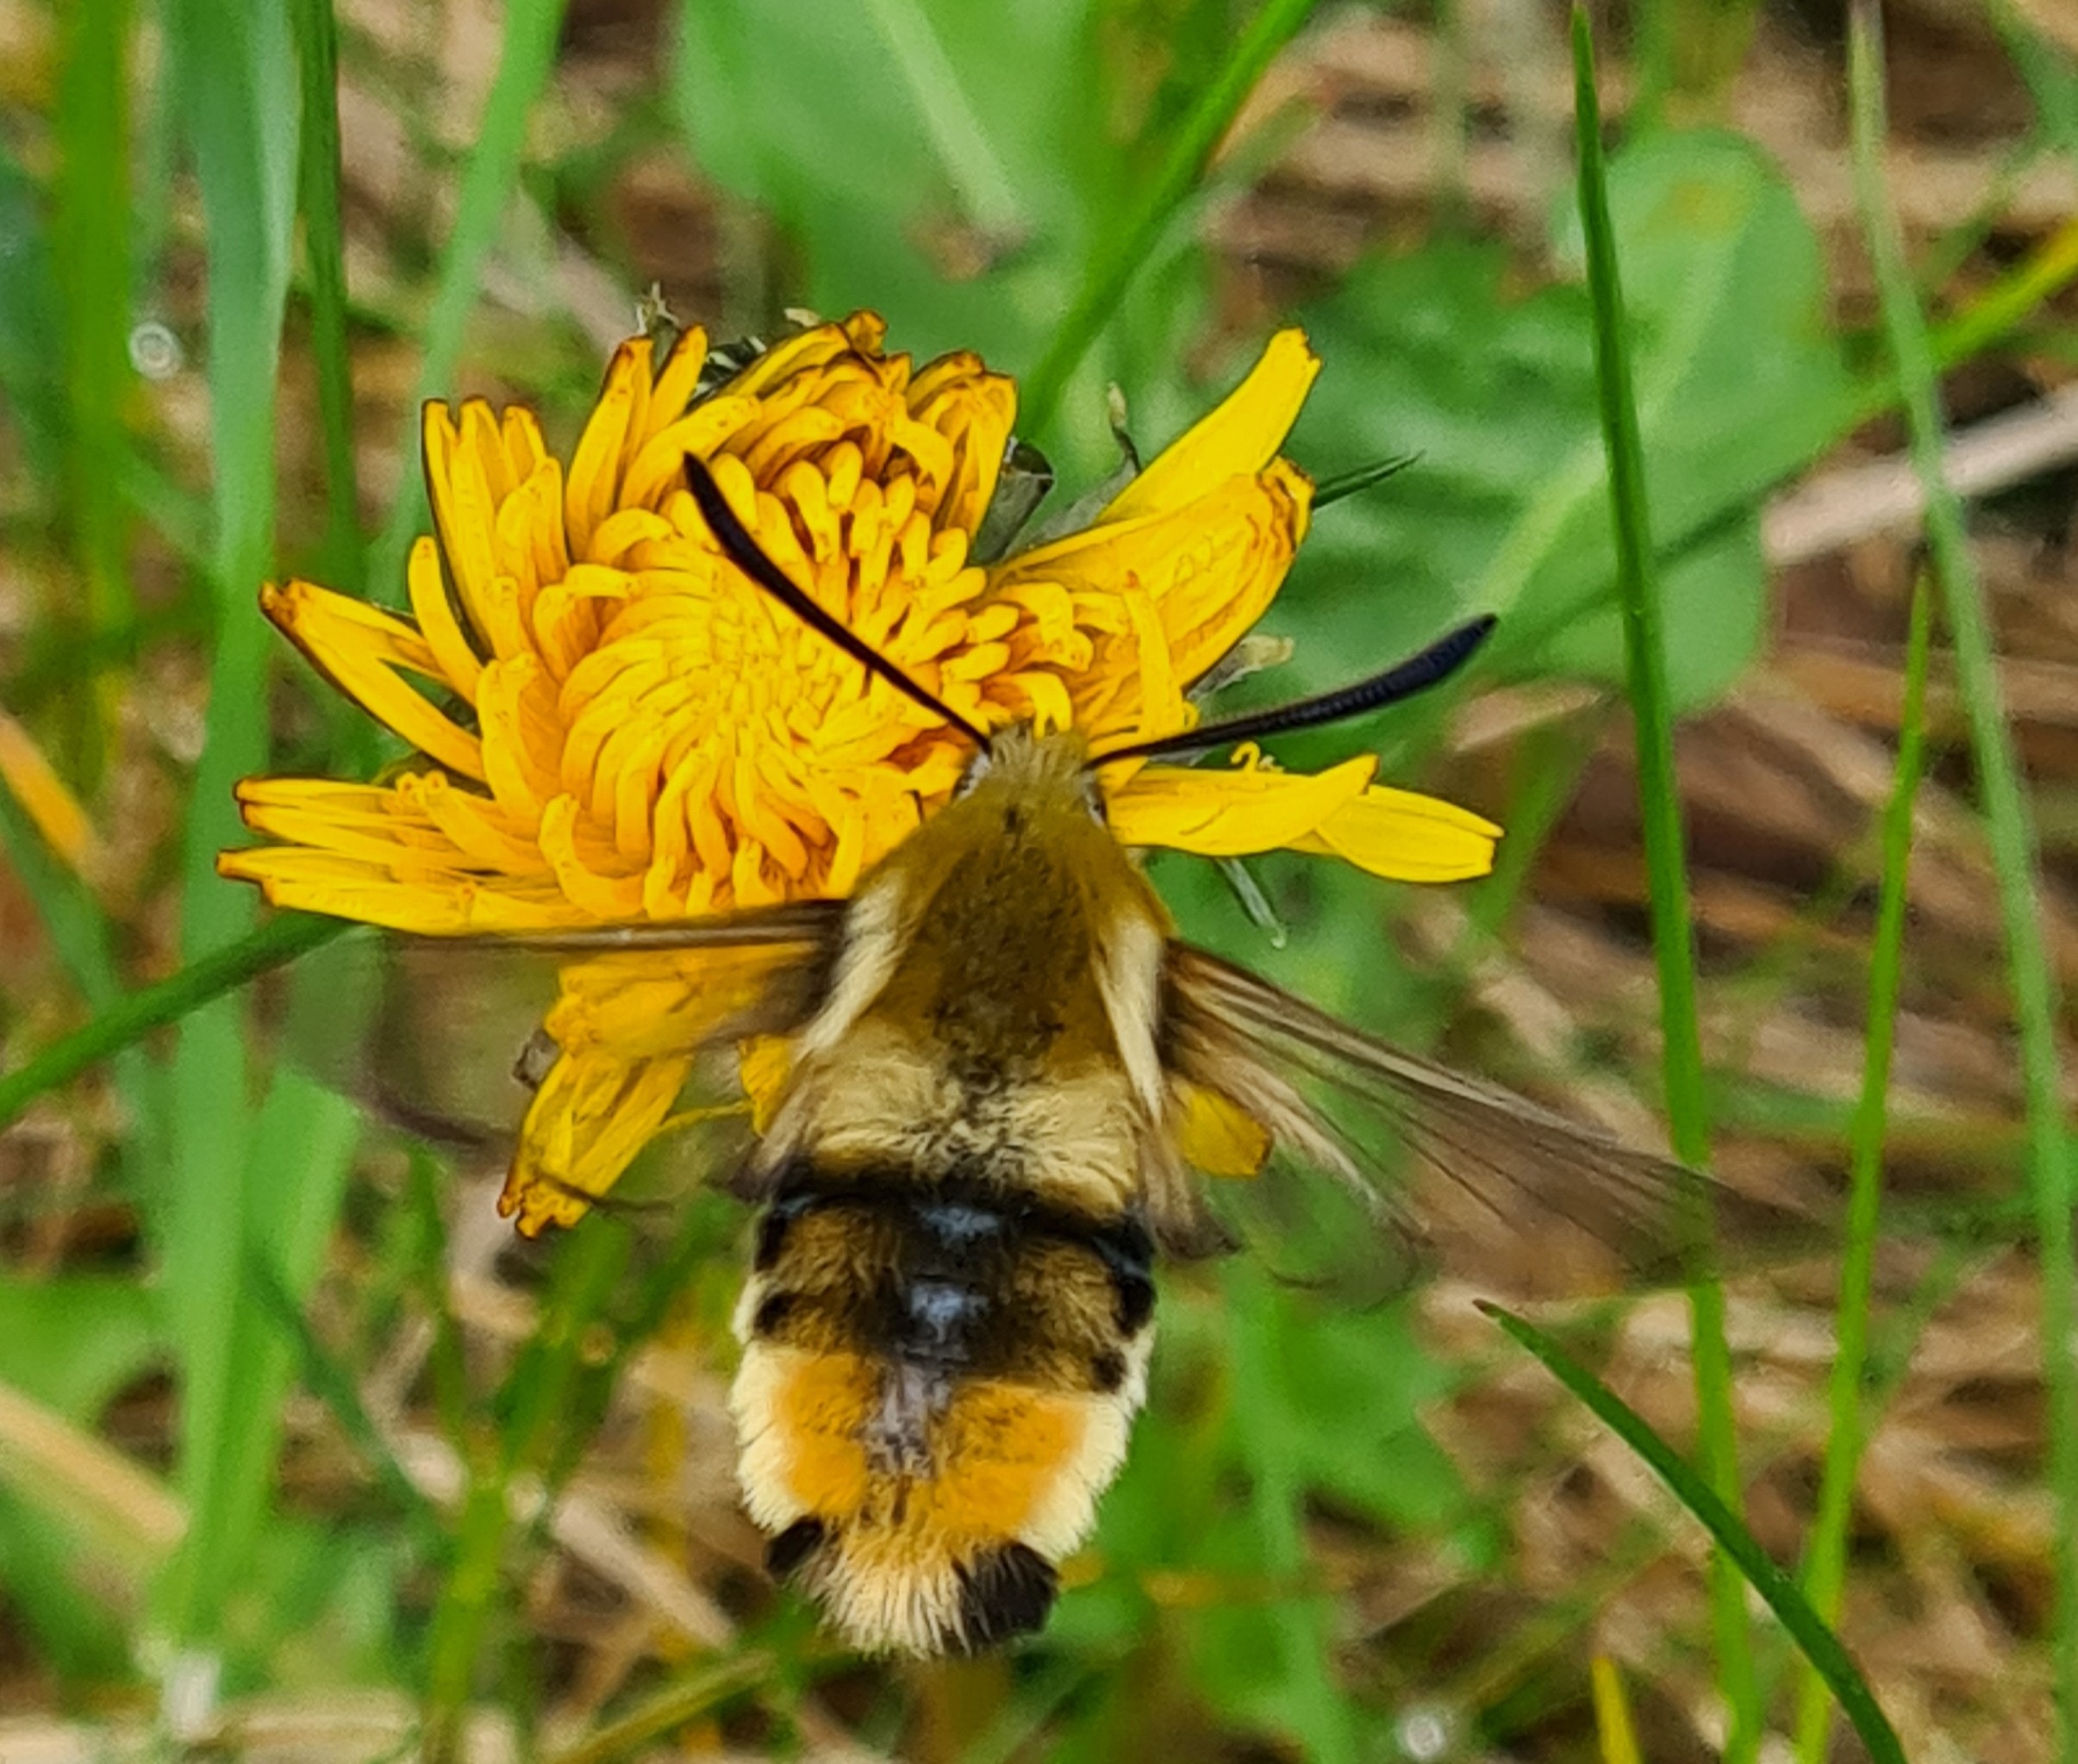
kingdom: Animalia
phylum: Arthropoda
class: Insecta
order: Lepidoptera
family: Sphingidae
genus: Hemaris
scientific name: Hemaris tityus
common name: Smalrandet humlebisværmer
